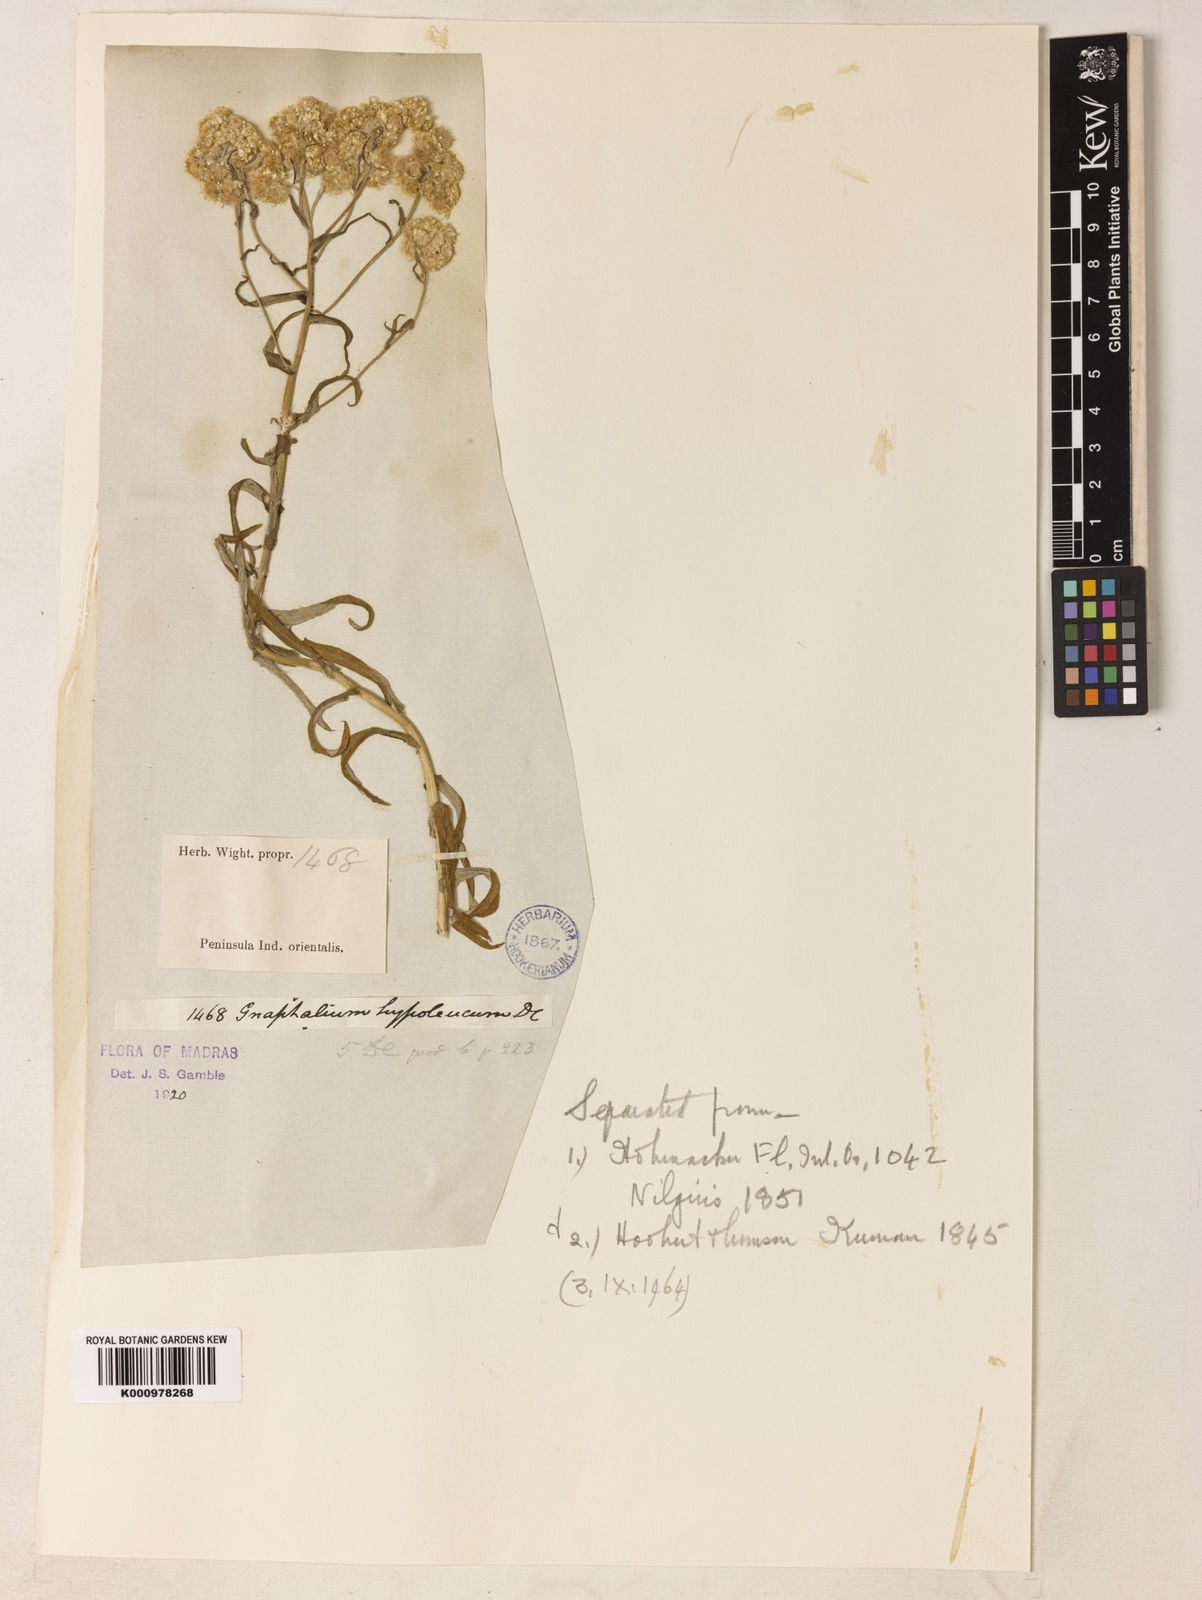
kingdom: Plantae
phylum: Tracheophyta
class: Magnoliopsida
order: Asterales
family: Asteraceae
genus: Pseudognaphalium
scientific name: Pseudognaphalium hypoleucum
